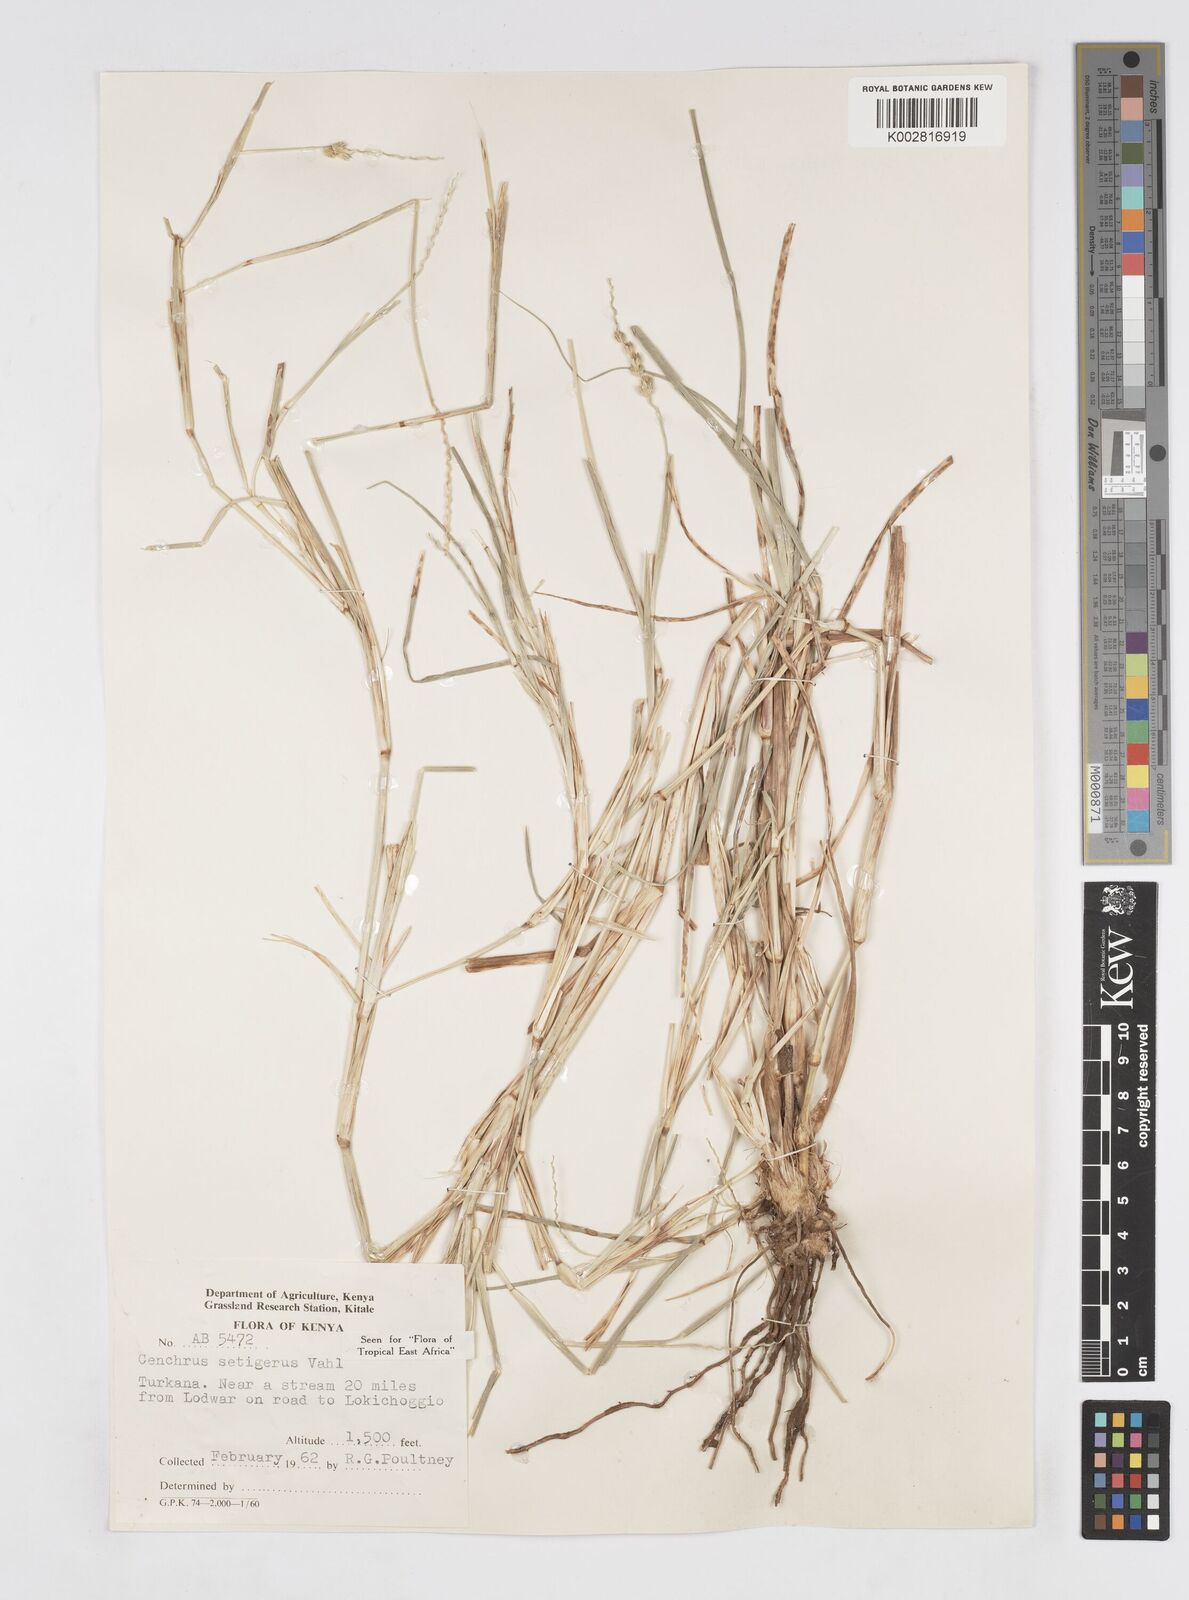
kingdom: Plantae
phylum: Tracheophyta
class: Liliopsida
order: Poales
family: Poaceae
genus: Cenchrus
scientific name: Cenchrus setigerus
